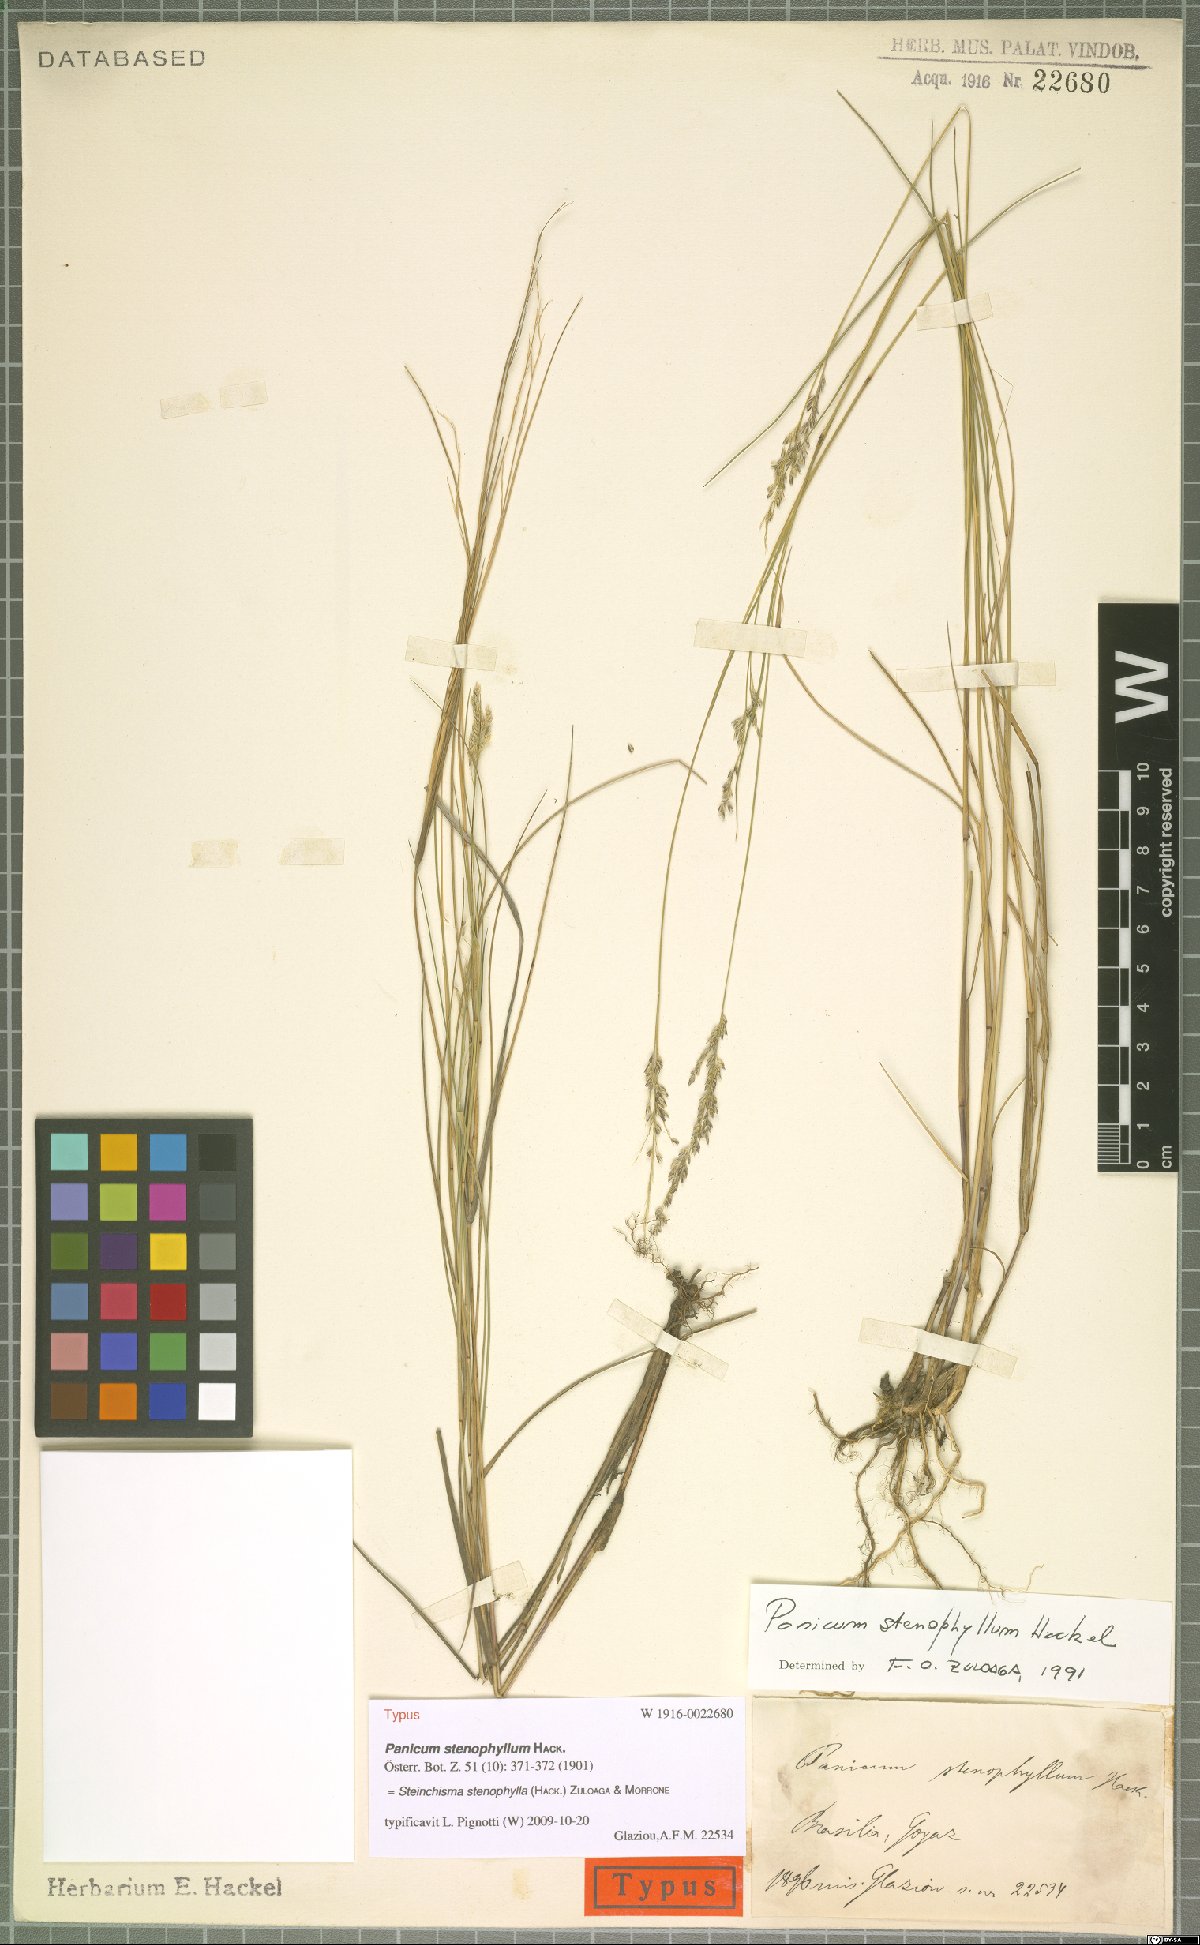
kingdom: Plantae
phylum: Tracheophyta
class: Liliopsida
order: Poales
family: Poaceae
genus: Steinchisma
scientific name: Steinchisma stenophyllum
